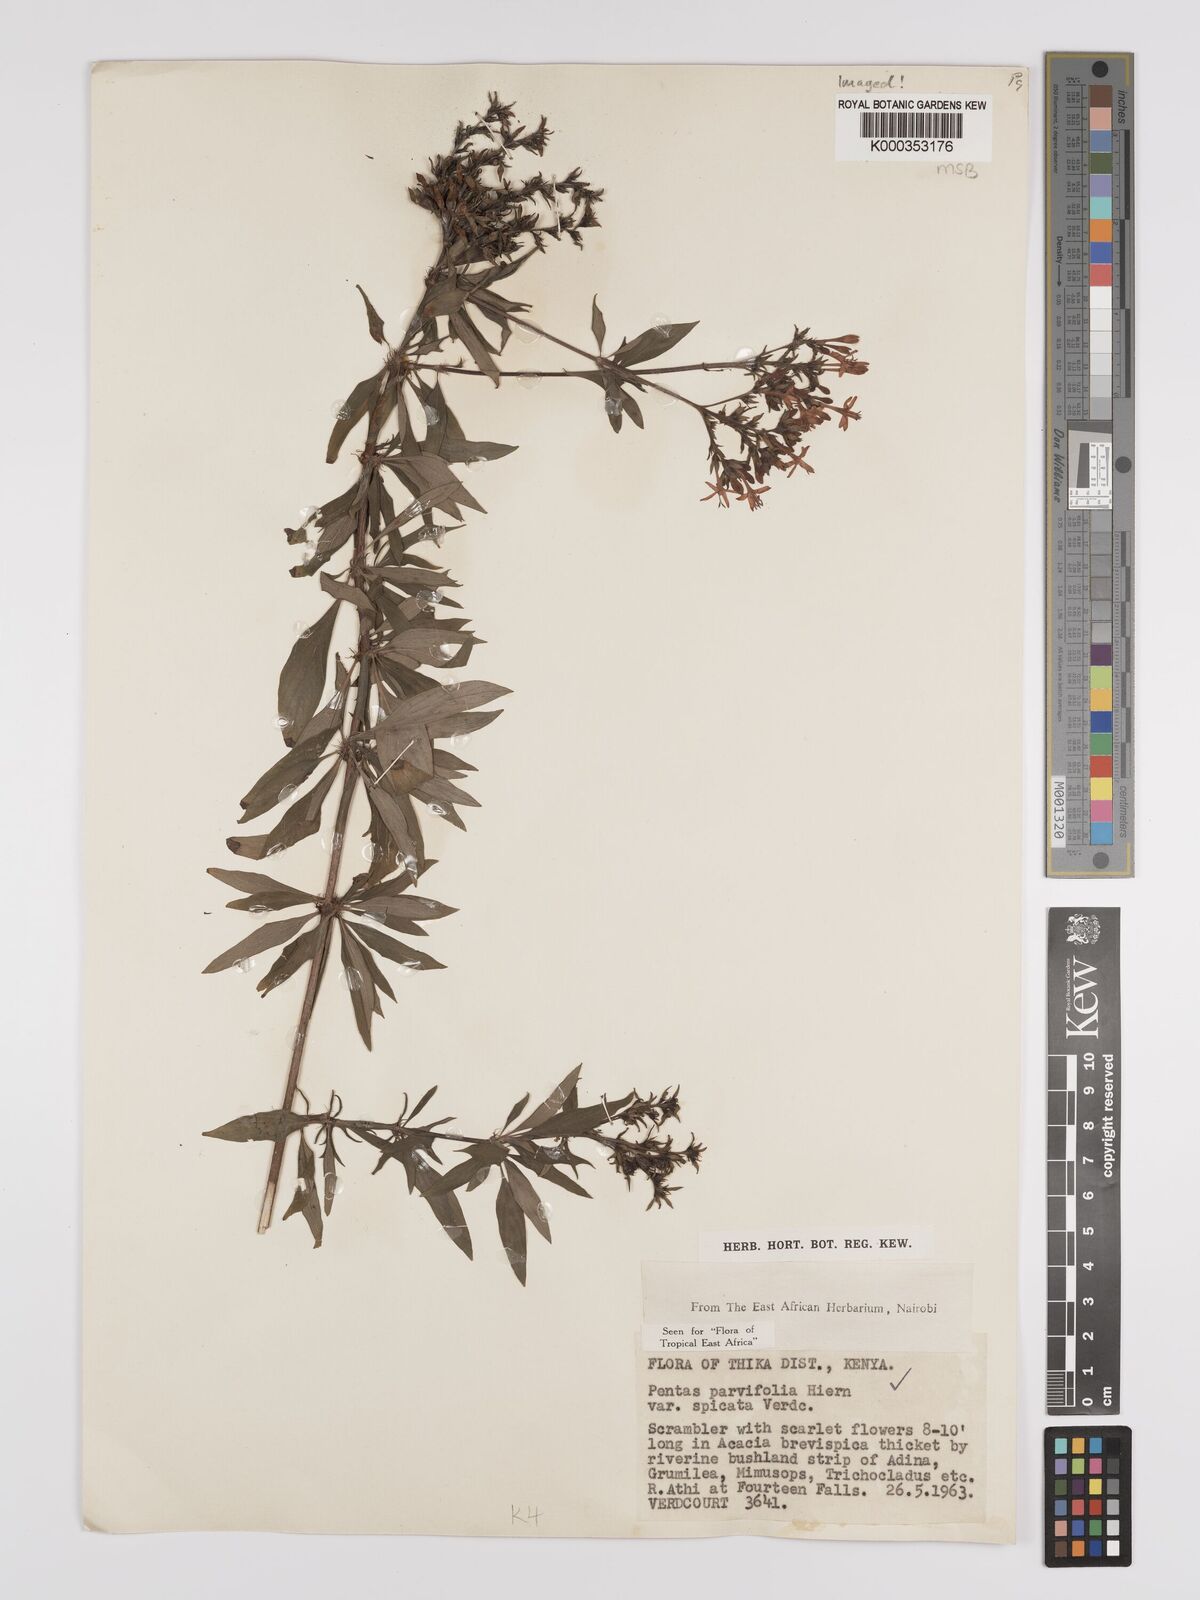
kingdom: Plantae
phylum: Tracheophyta
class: Magnoliopsida
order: Gentianales
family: Rubiaceae
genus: Rhodopentas
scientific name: Rhodopentas parvifolia
